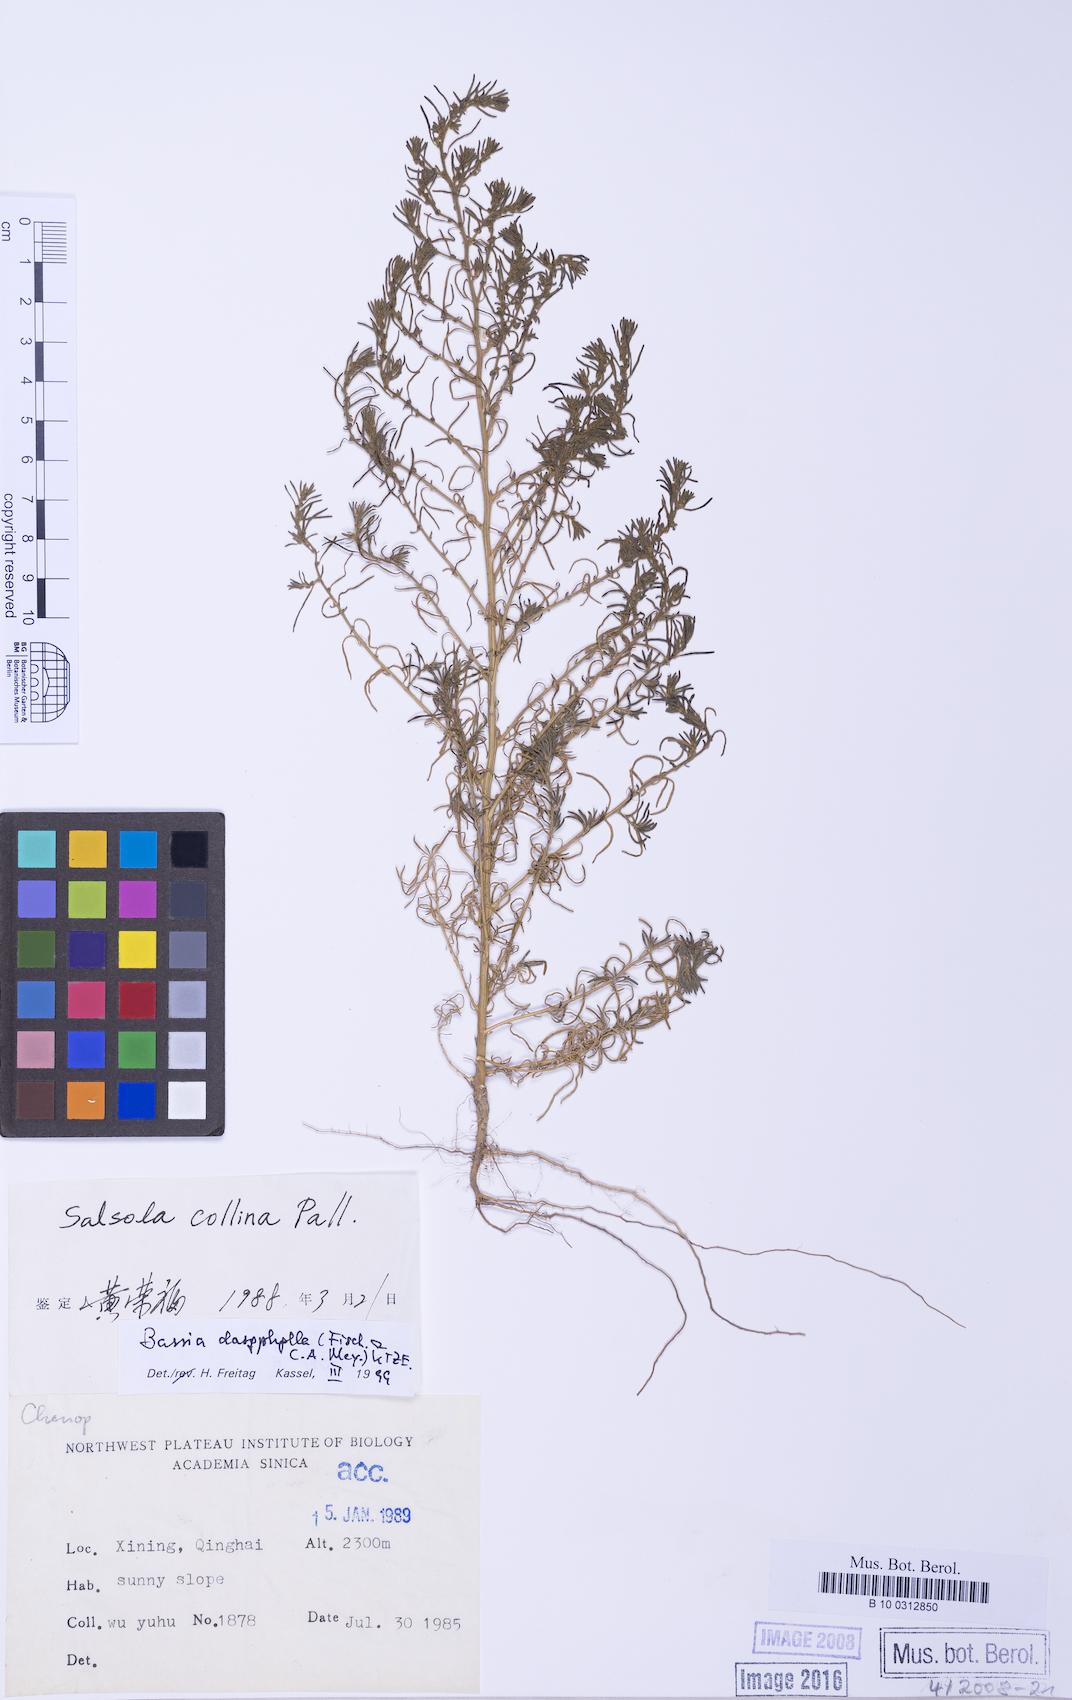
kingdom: Plantae
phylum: Tracheophyta
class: Magnoliopsida
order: Caryophyllales
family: Amaranthaceae
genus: Grubovia
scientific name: Grubovia dasyphylla
